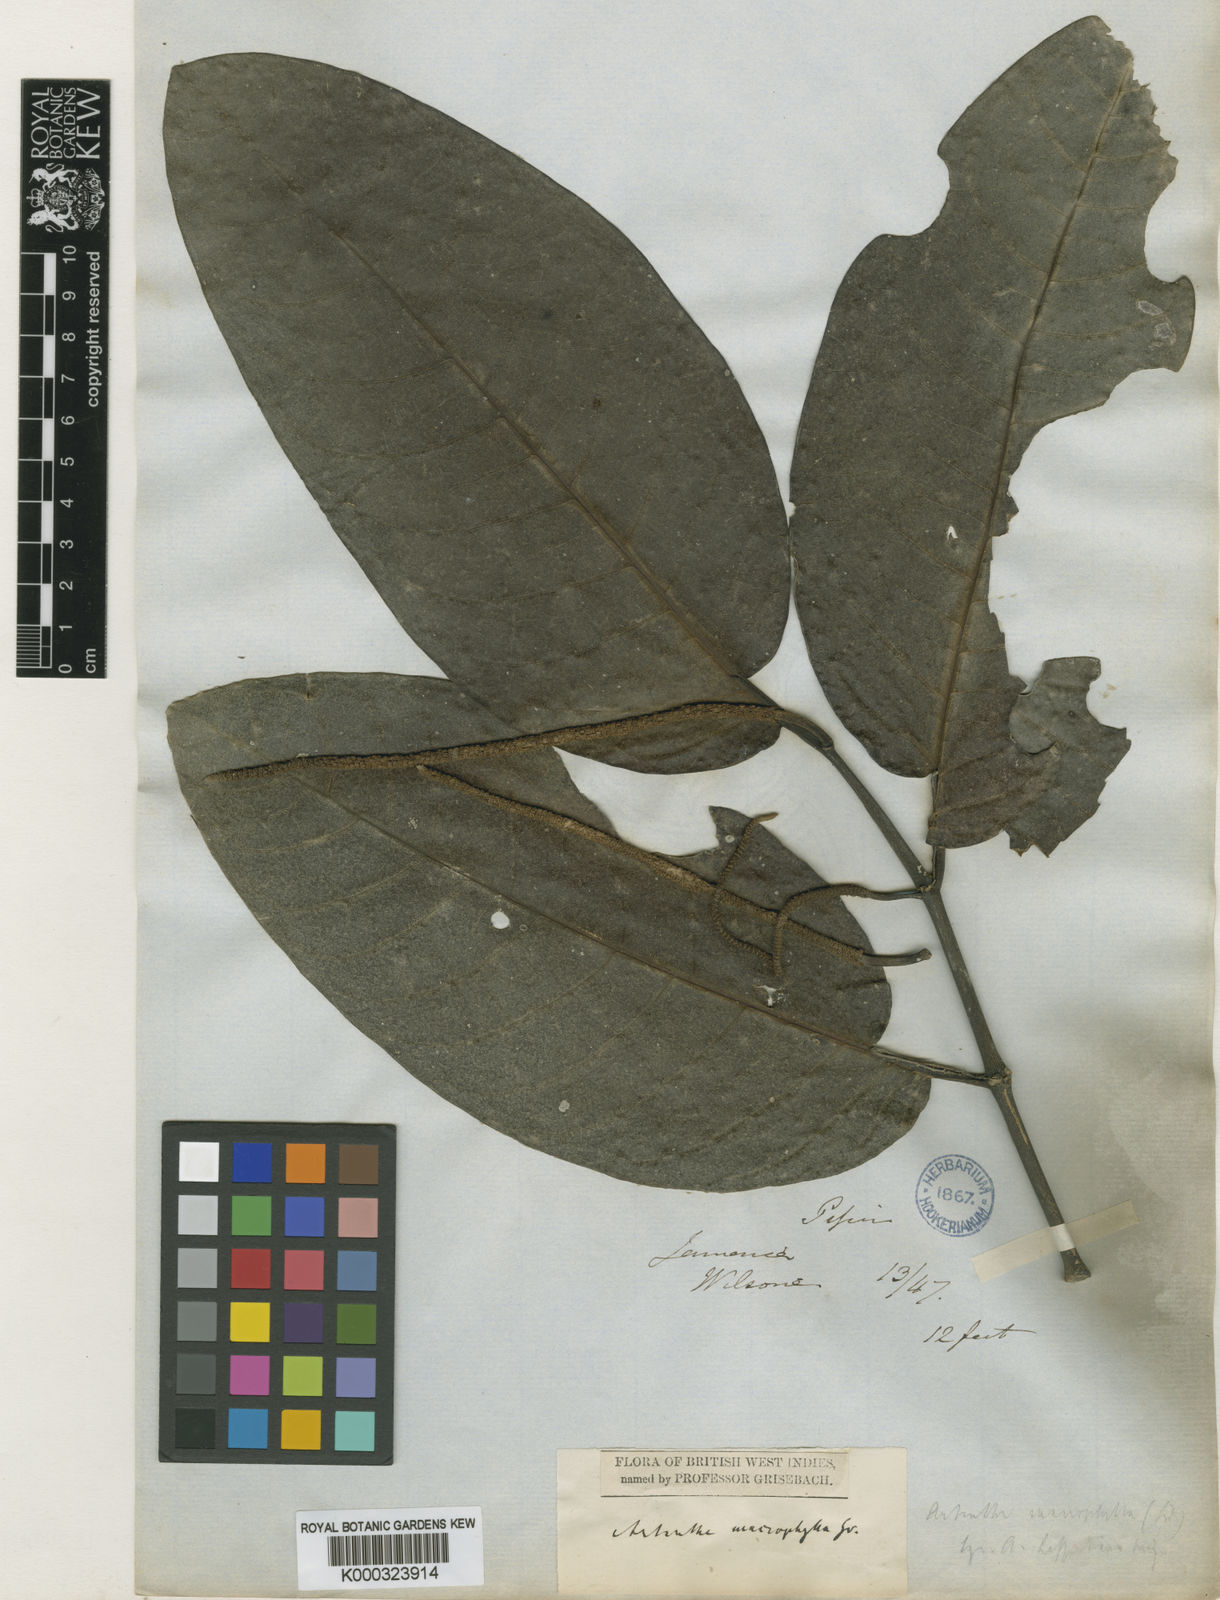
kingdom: Plantae
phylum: Tracheophyta
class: Magnoliopsida
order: Piperales
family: Piperaceae
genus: Piper
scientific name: Piper arboreum
